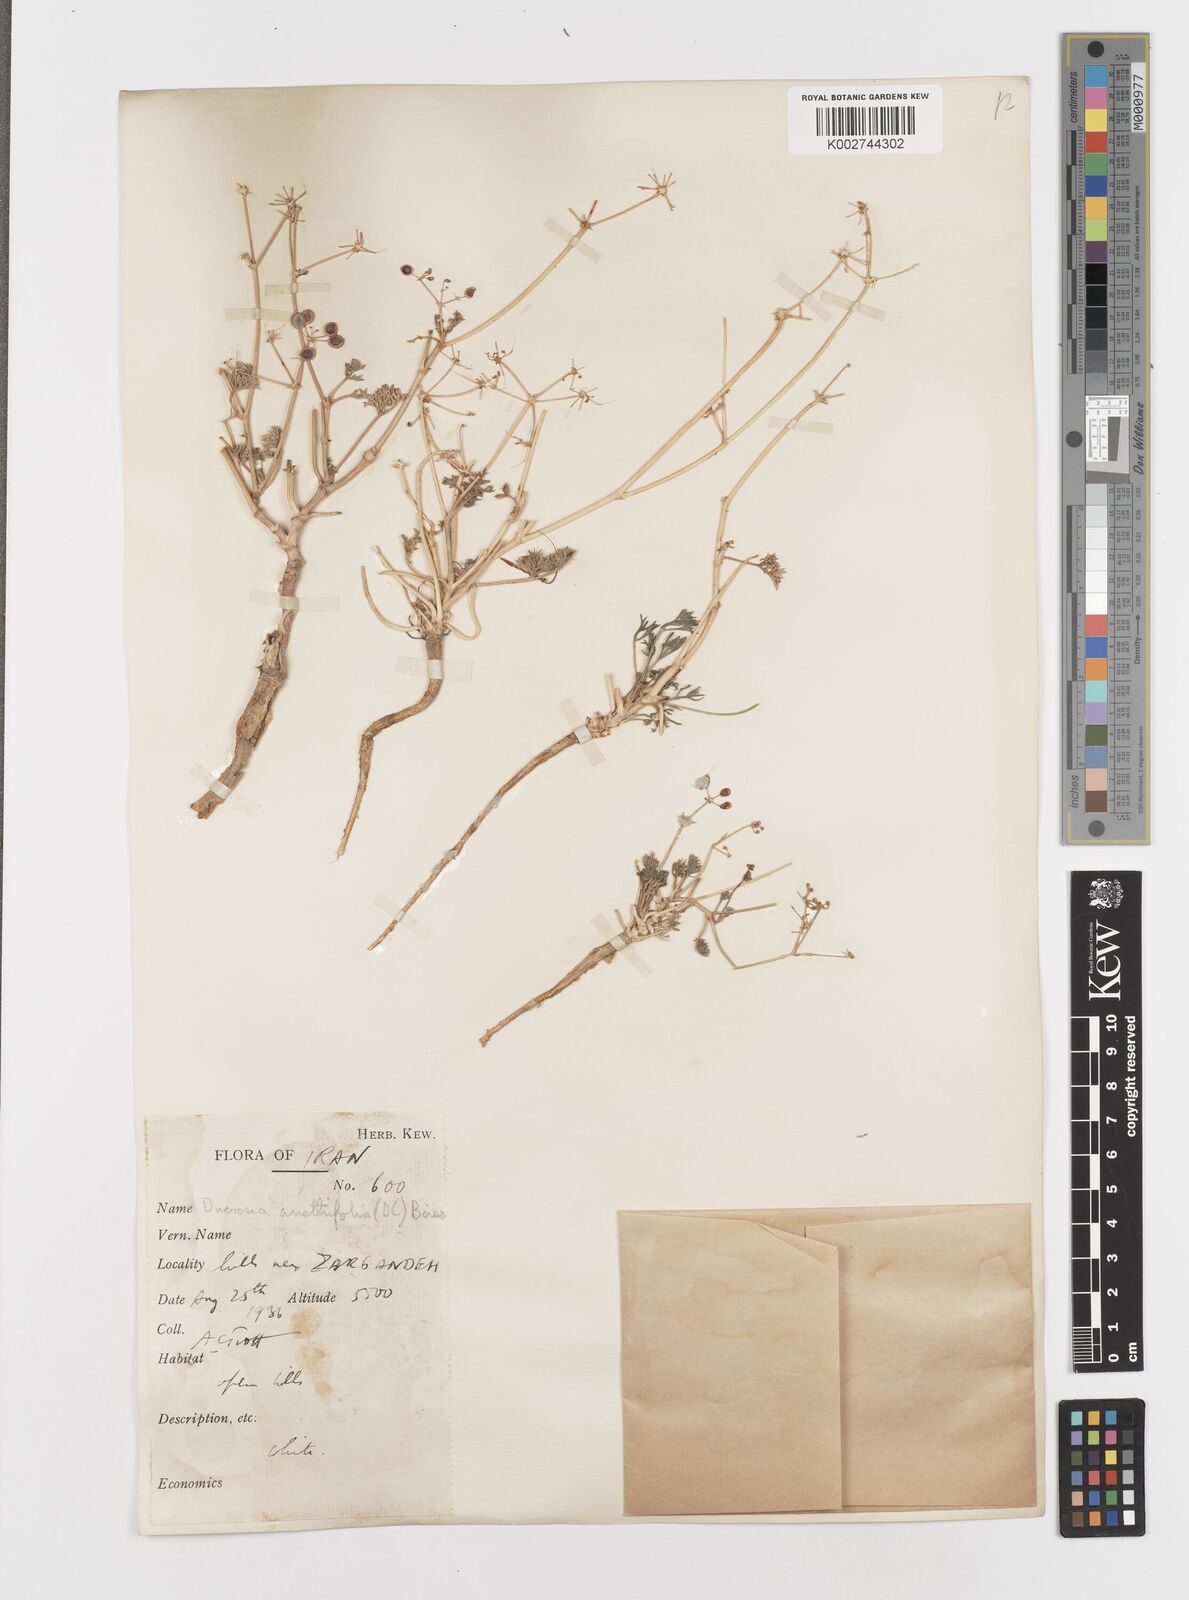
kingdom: Plantae
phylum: Tracheophyta
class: Magnoliopsida
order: Apiales
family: Apiaceae
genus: Ducrosia
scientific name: Ducrosia anethifolia
